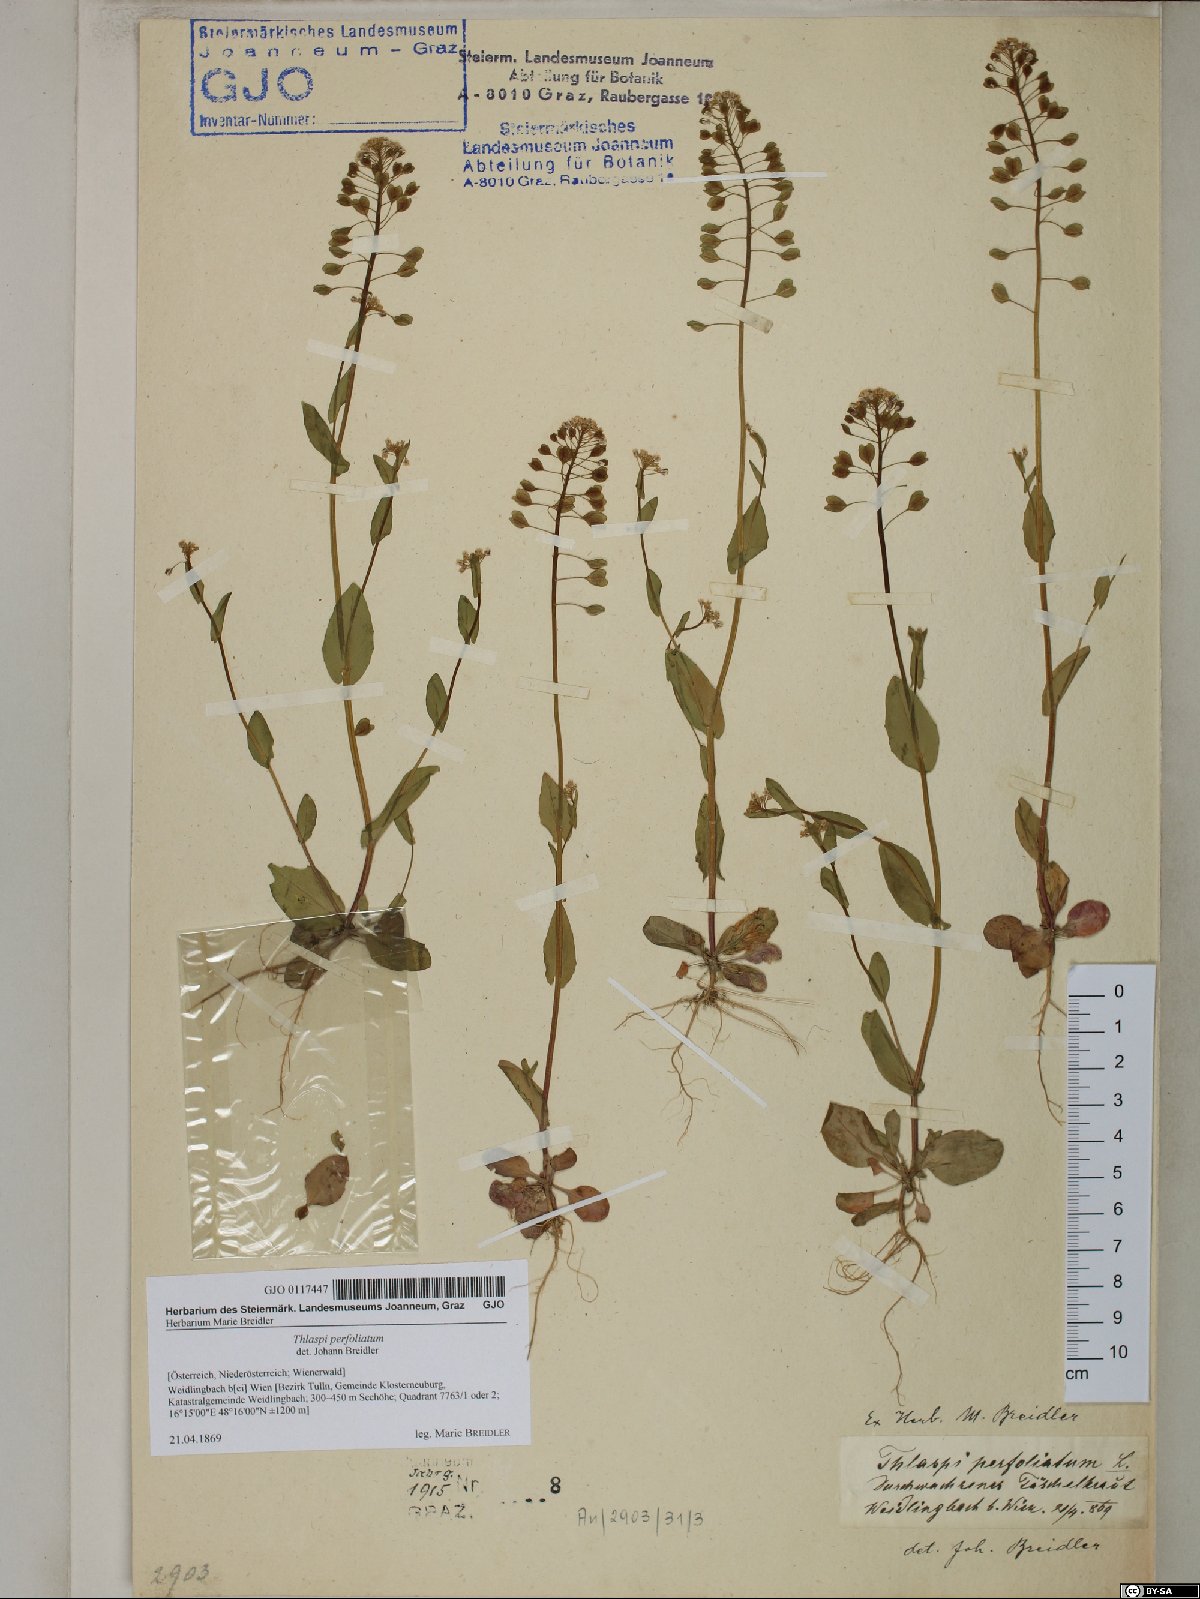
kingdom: Plantae
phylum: Tracheophyta
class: Magnoliopsida
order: Brassicales
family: Brassicaceae
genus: Noccaea
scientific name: Noccaea perfoliata
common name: Perfoliate pennycress
